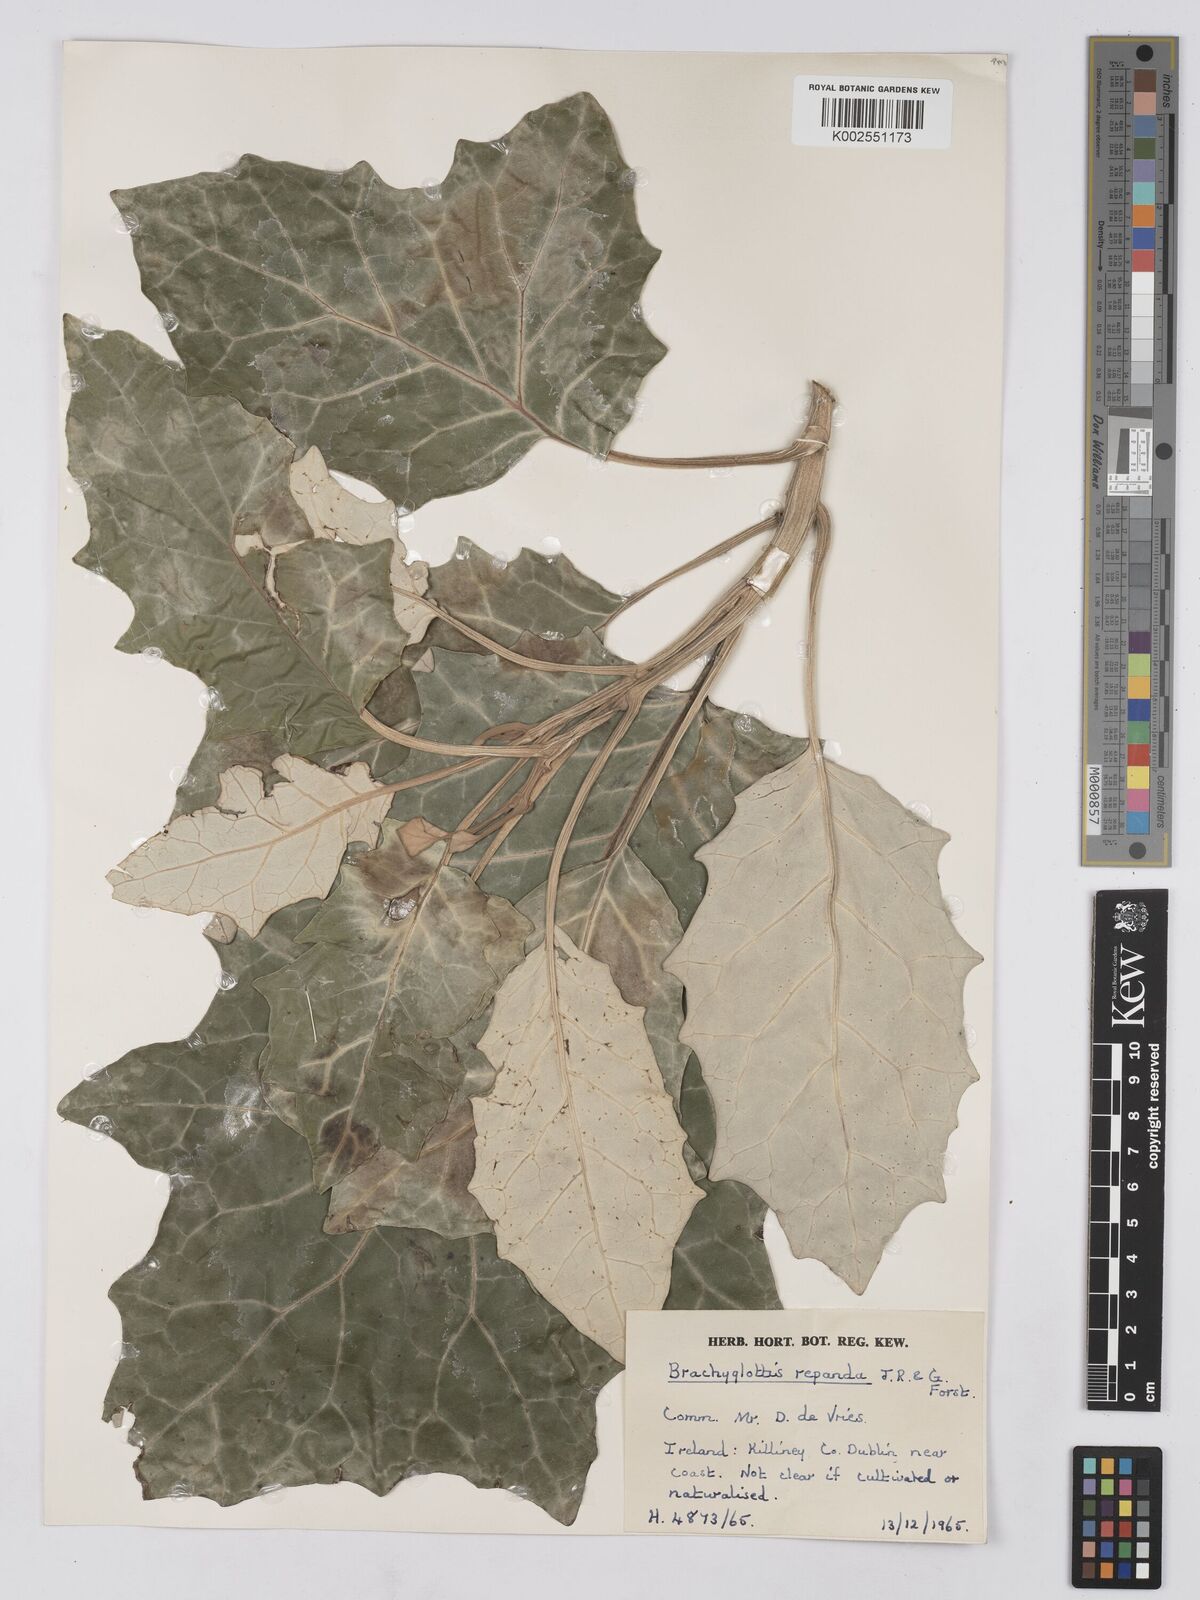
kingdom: Plantae
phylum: Tracheophyta
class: Magnoliopsida
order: Asterales
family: Asteraceae
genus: Brachyglottis
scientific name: Brachyglottis repanda
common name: Hedge ragwort
